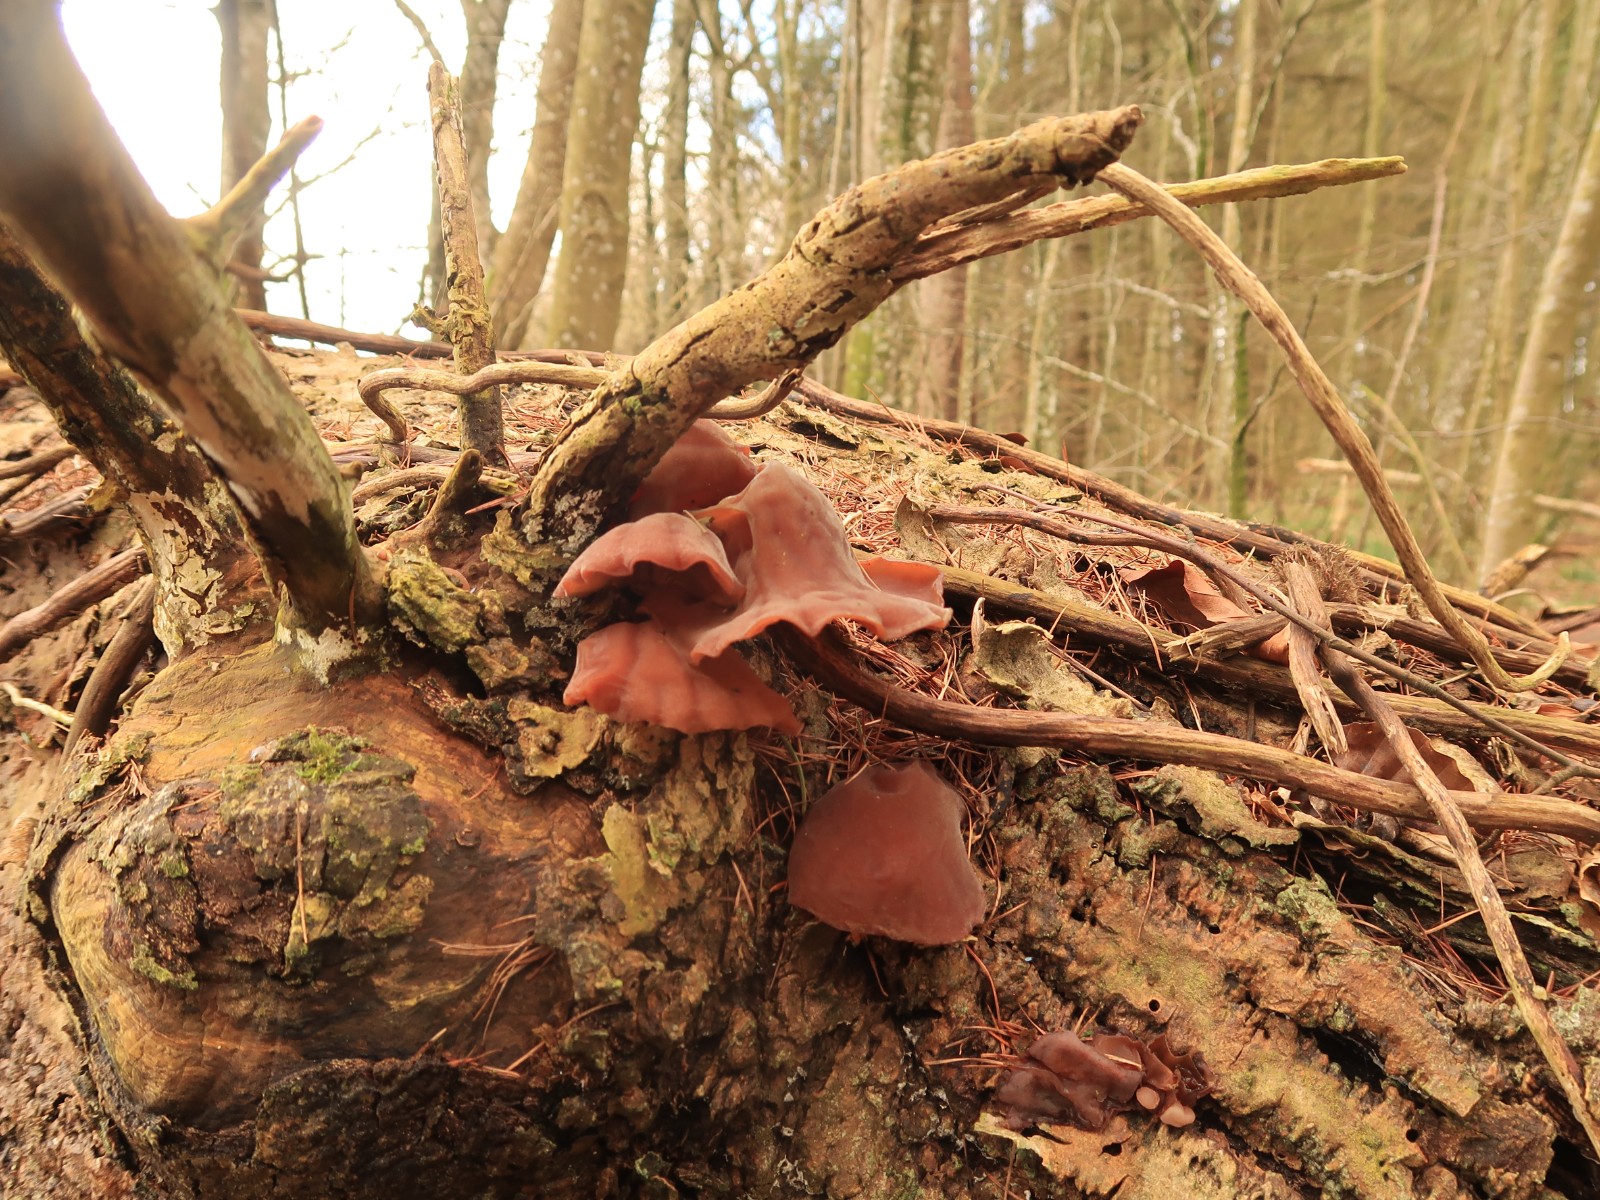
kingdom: Fungi
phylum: Basidiomycota
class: Agaricomycetes
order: Auriculariales
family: Auriculariaceae
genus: Auricularia
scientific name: Auricularia auricula-judae
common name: almindelig judasøre
